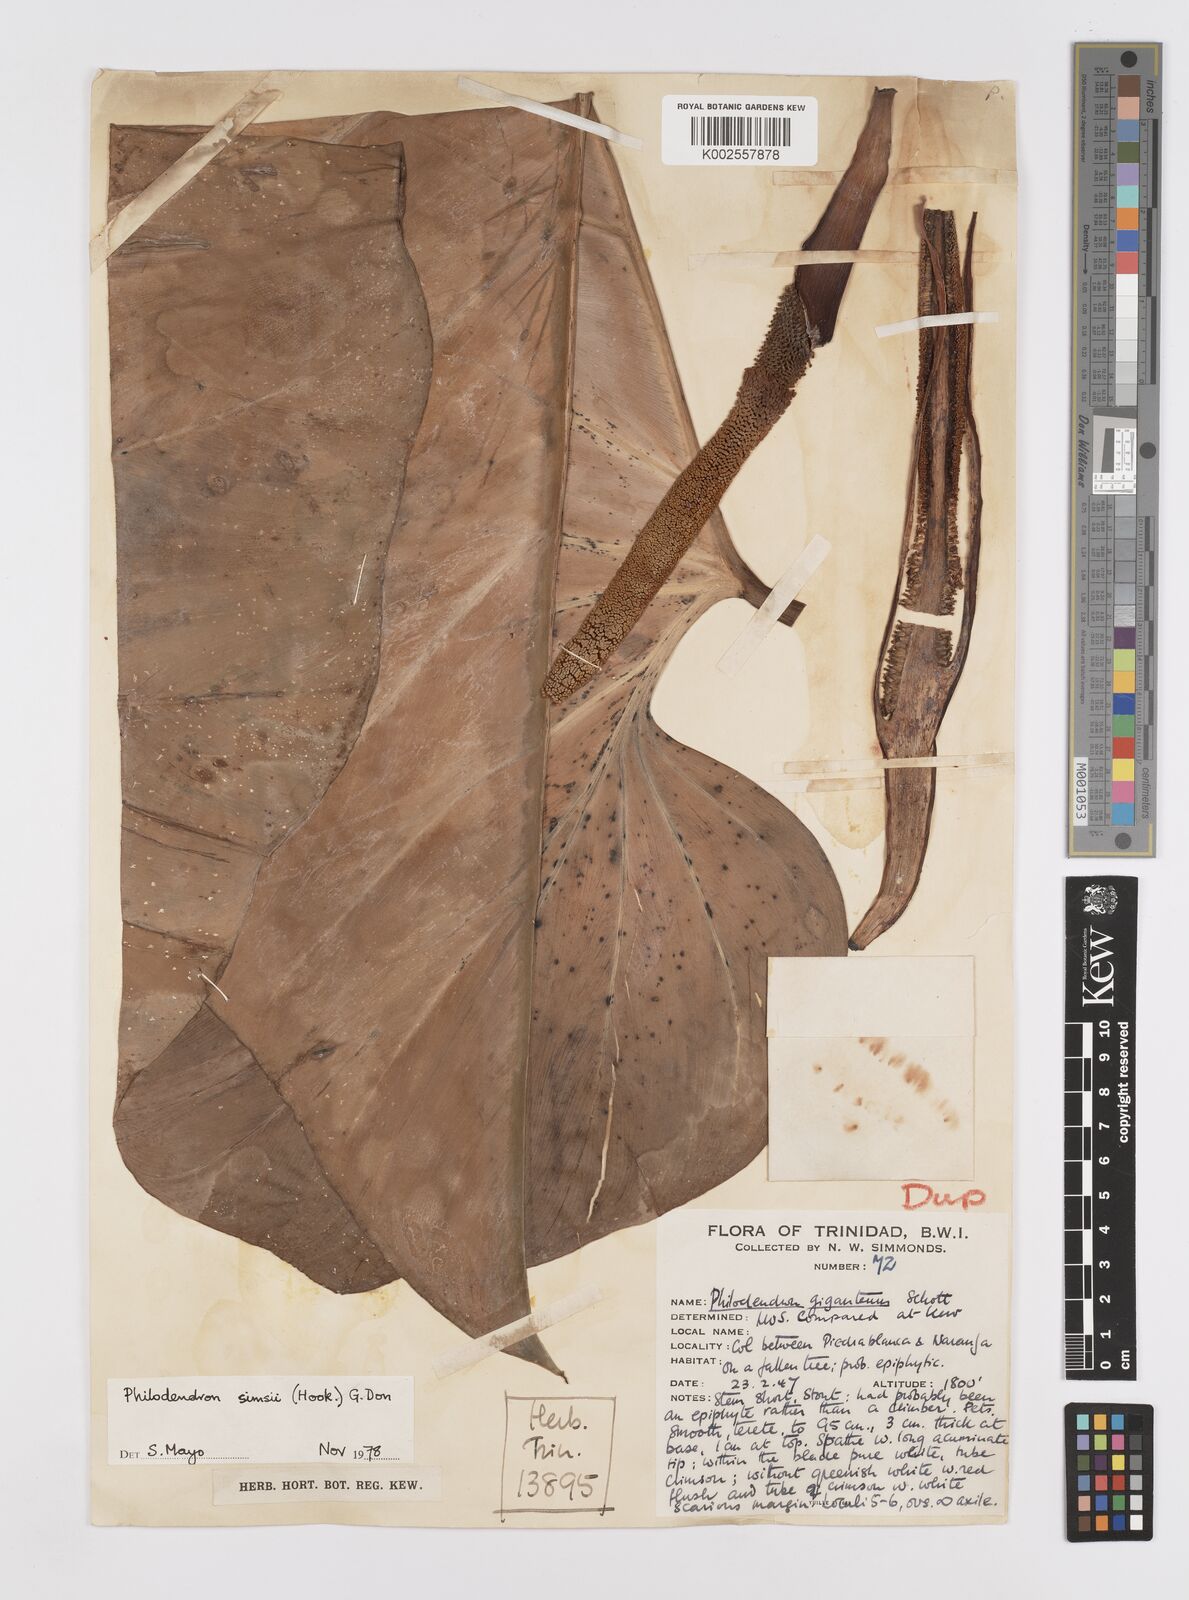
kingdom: Plantae
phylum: Tracheophyta
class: Liliopsida
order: Alismatales
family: Araceae
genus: Philodendron
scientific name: Philodendron
